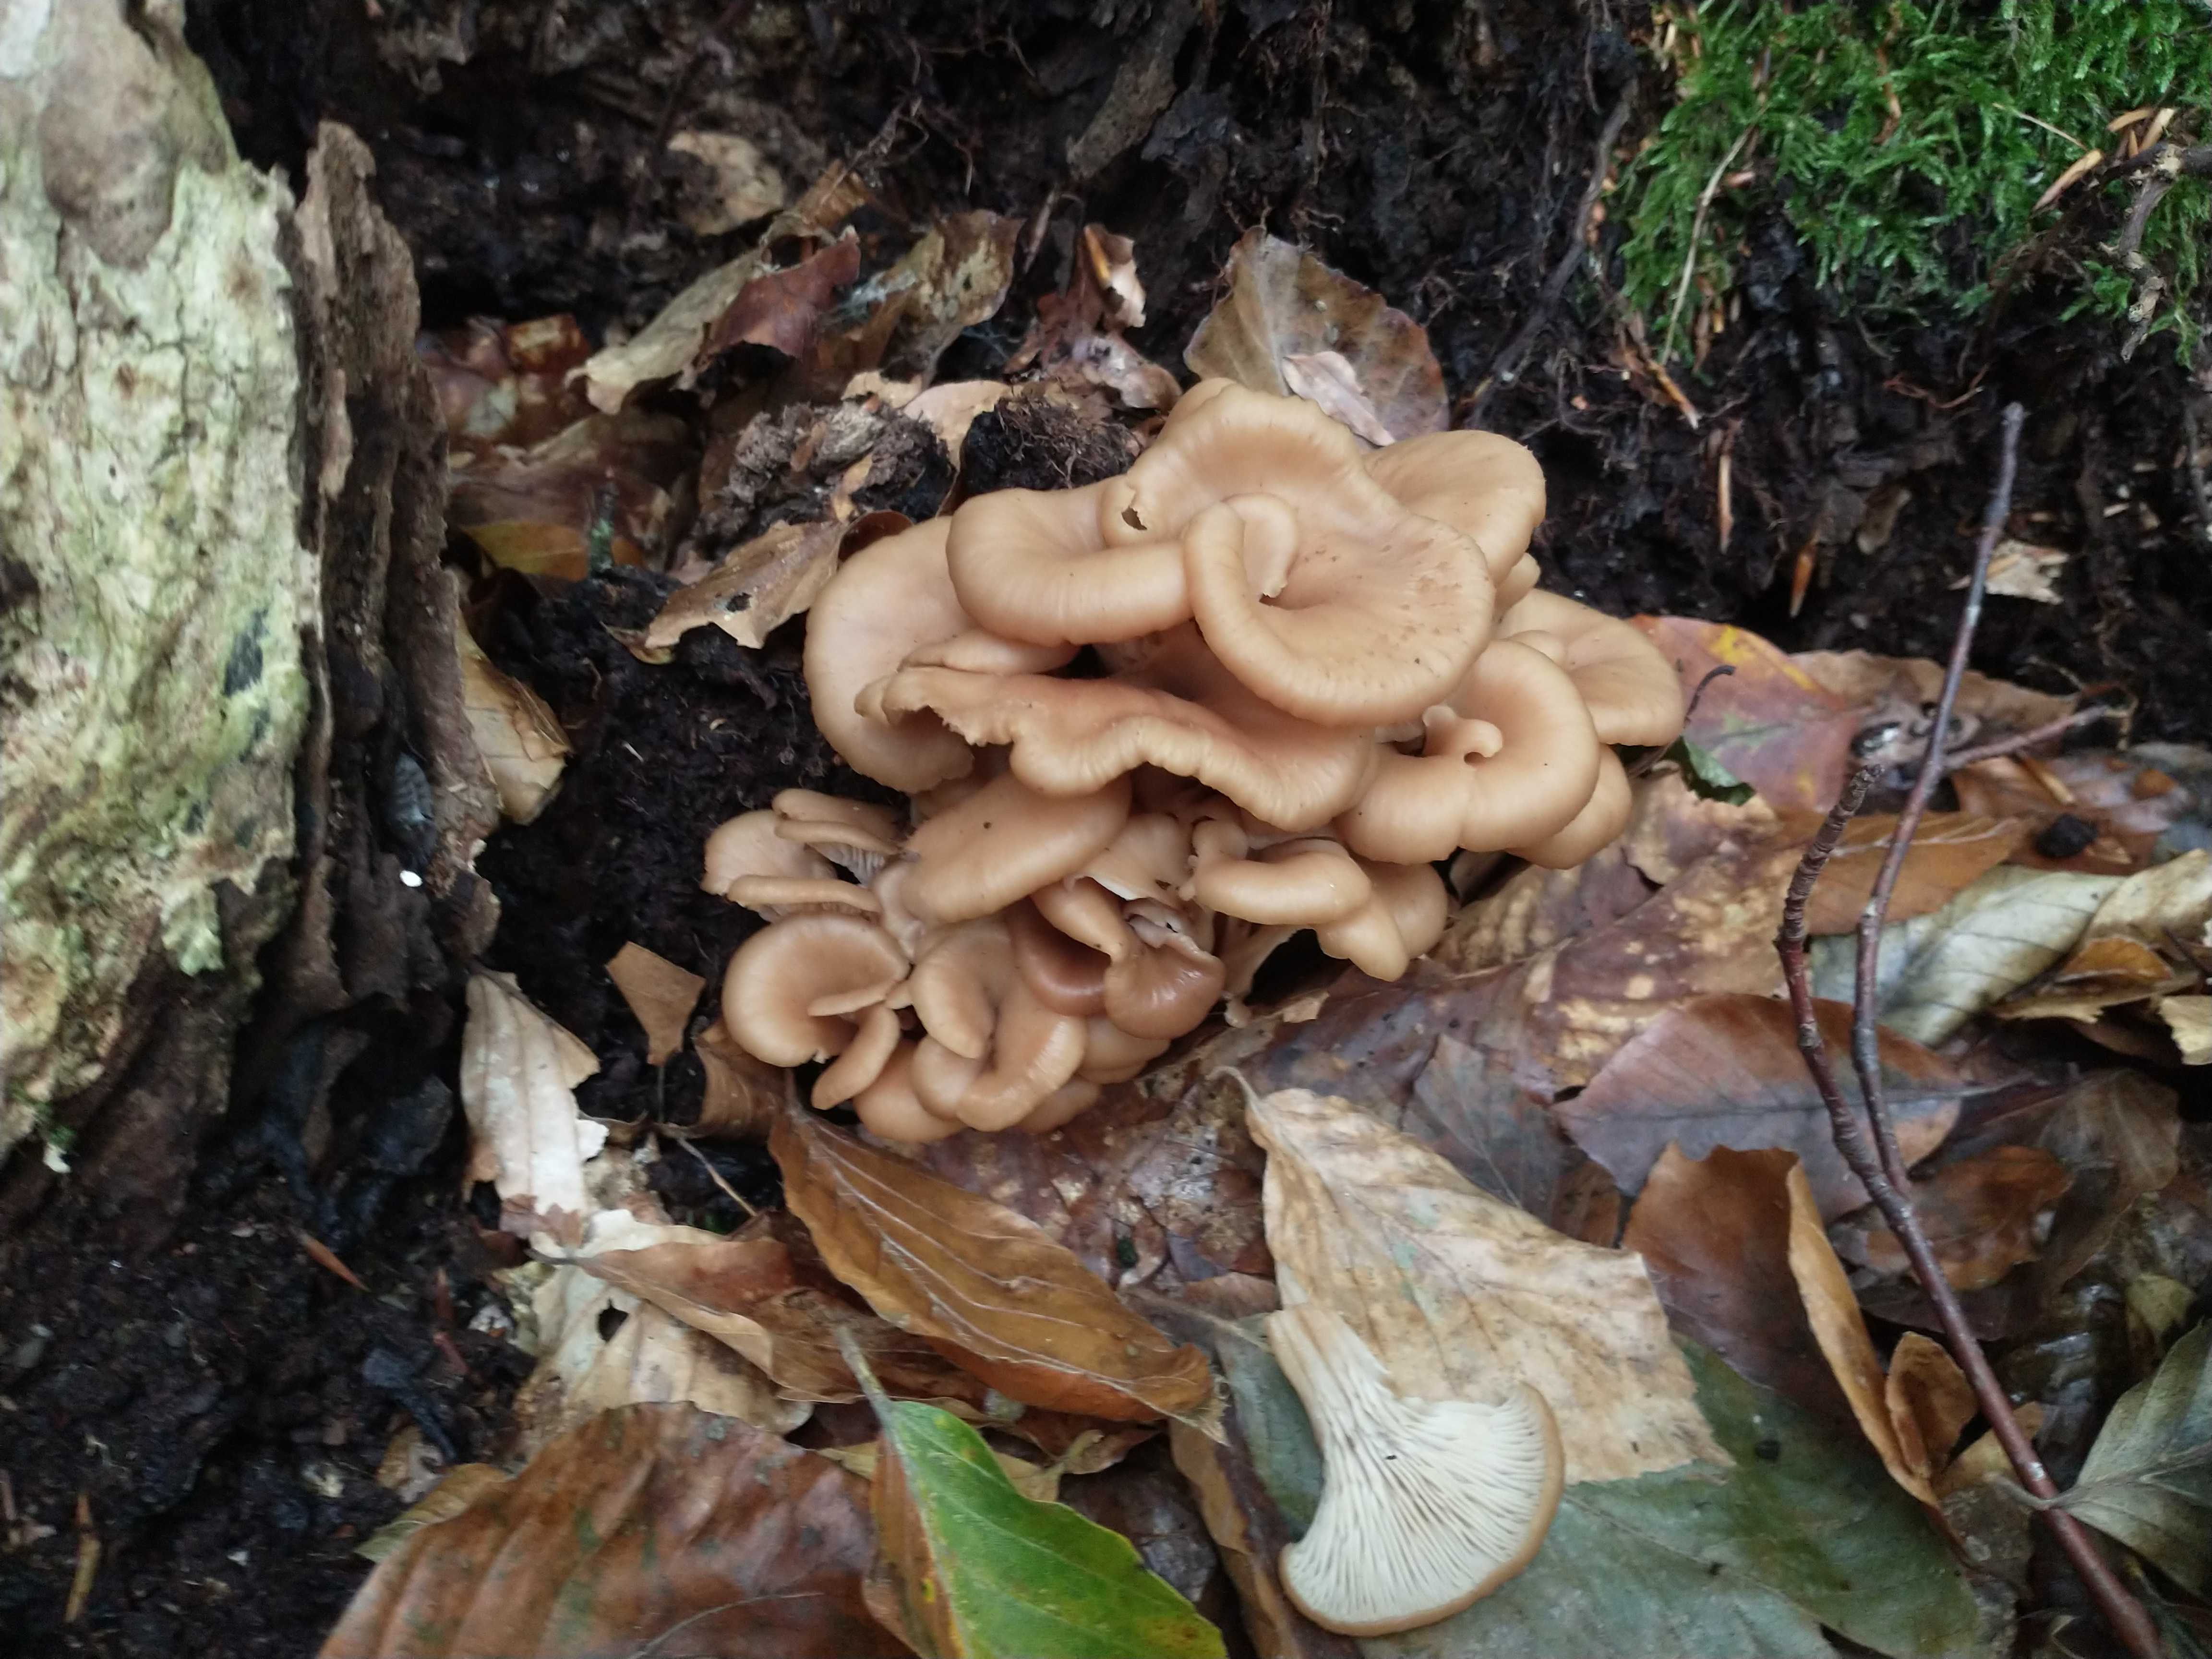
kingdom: Fungi
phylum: Basidiomycota
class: Agaricomycetes
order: Russulales
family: Auriscalpiaceae
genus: Lentinellus
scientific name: Lentinellus cochleatus
